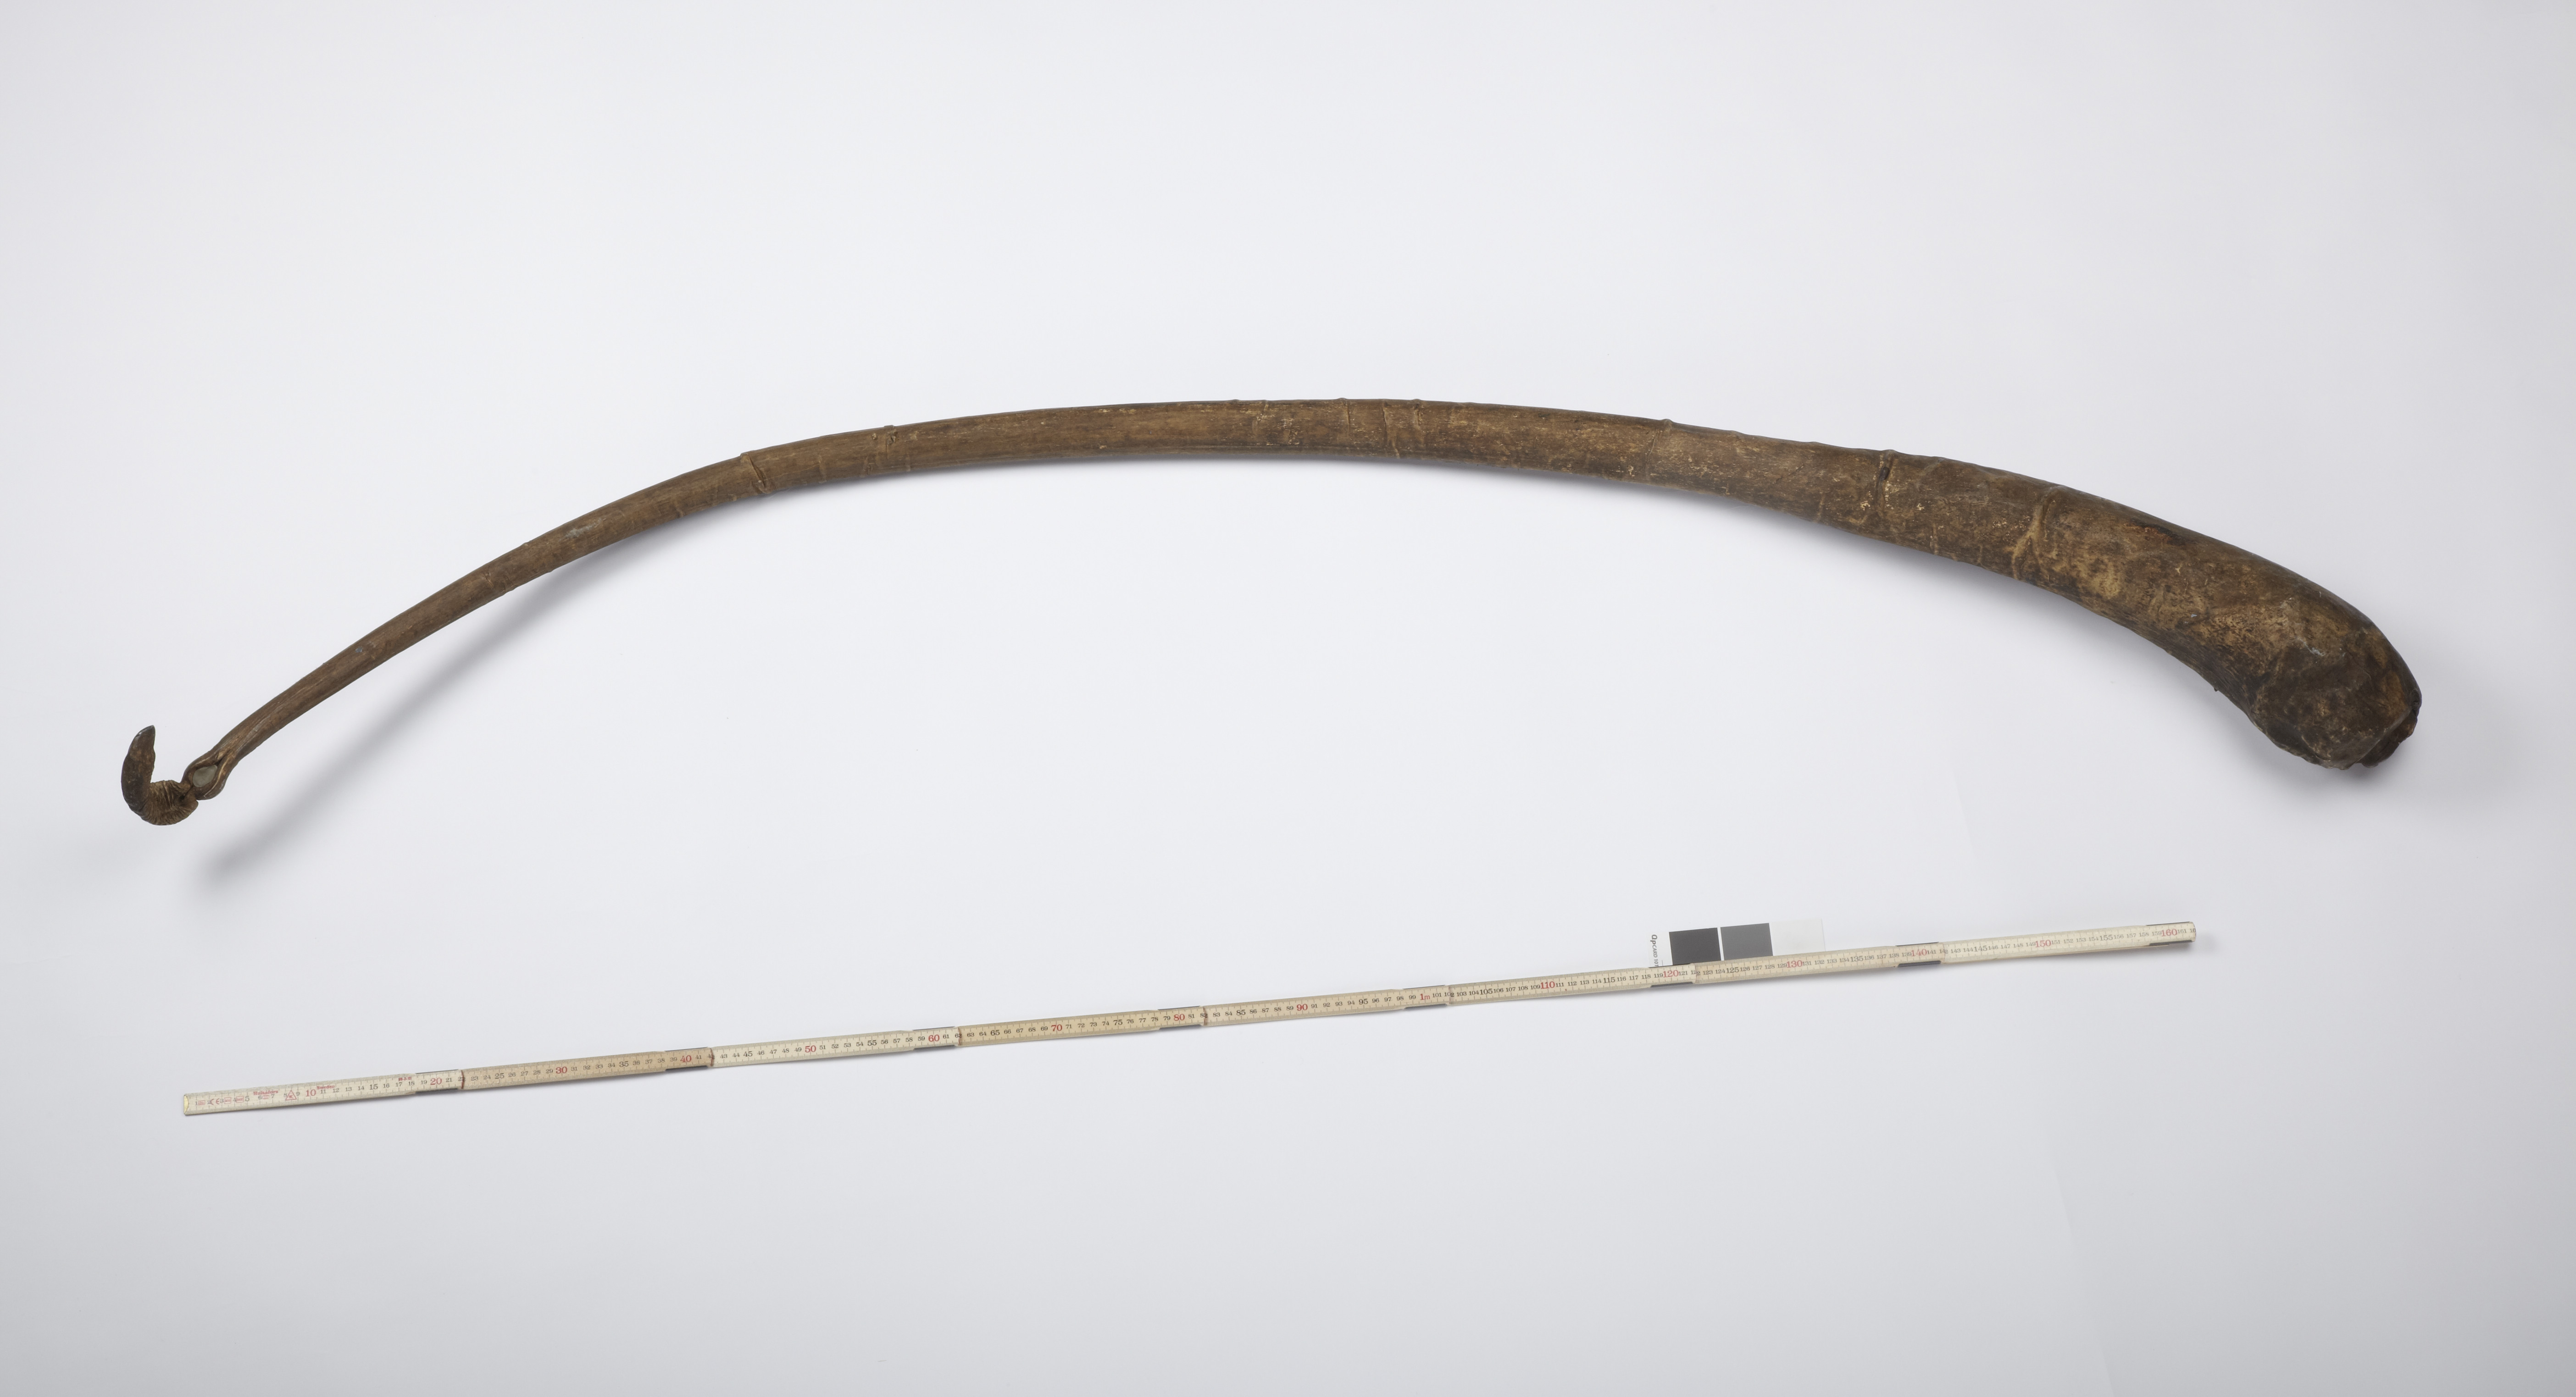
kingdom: Animalia
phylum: Chordata
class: Mammalia
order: Cetacea
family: Balaenidae
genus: Balaena
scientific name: Balaena
